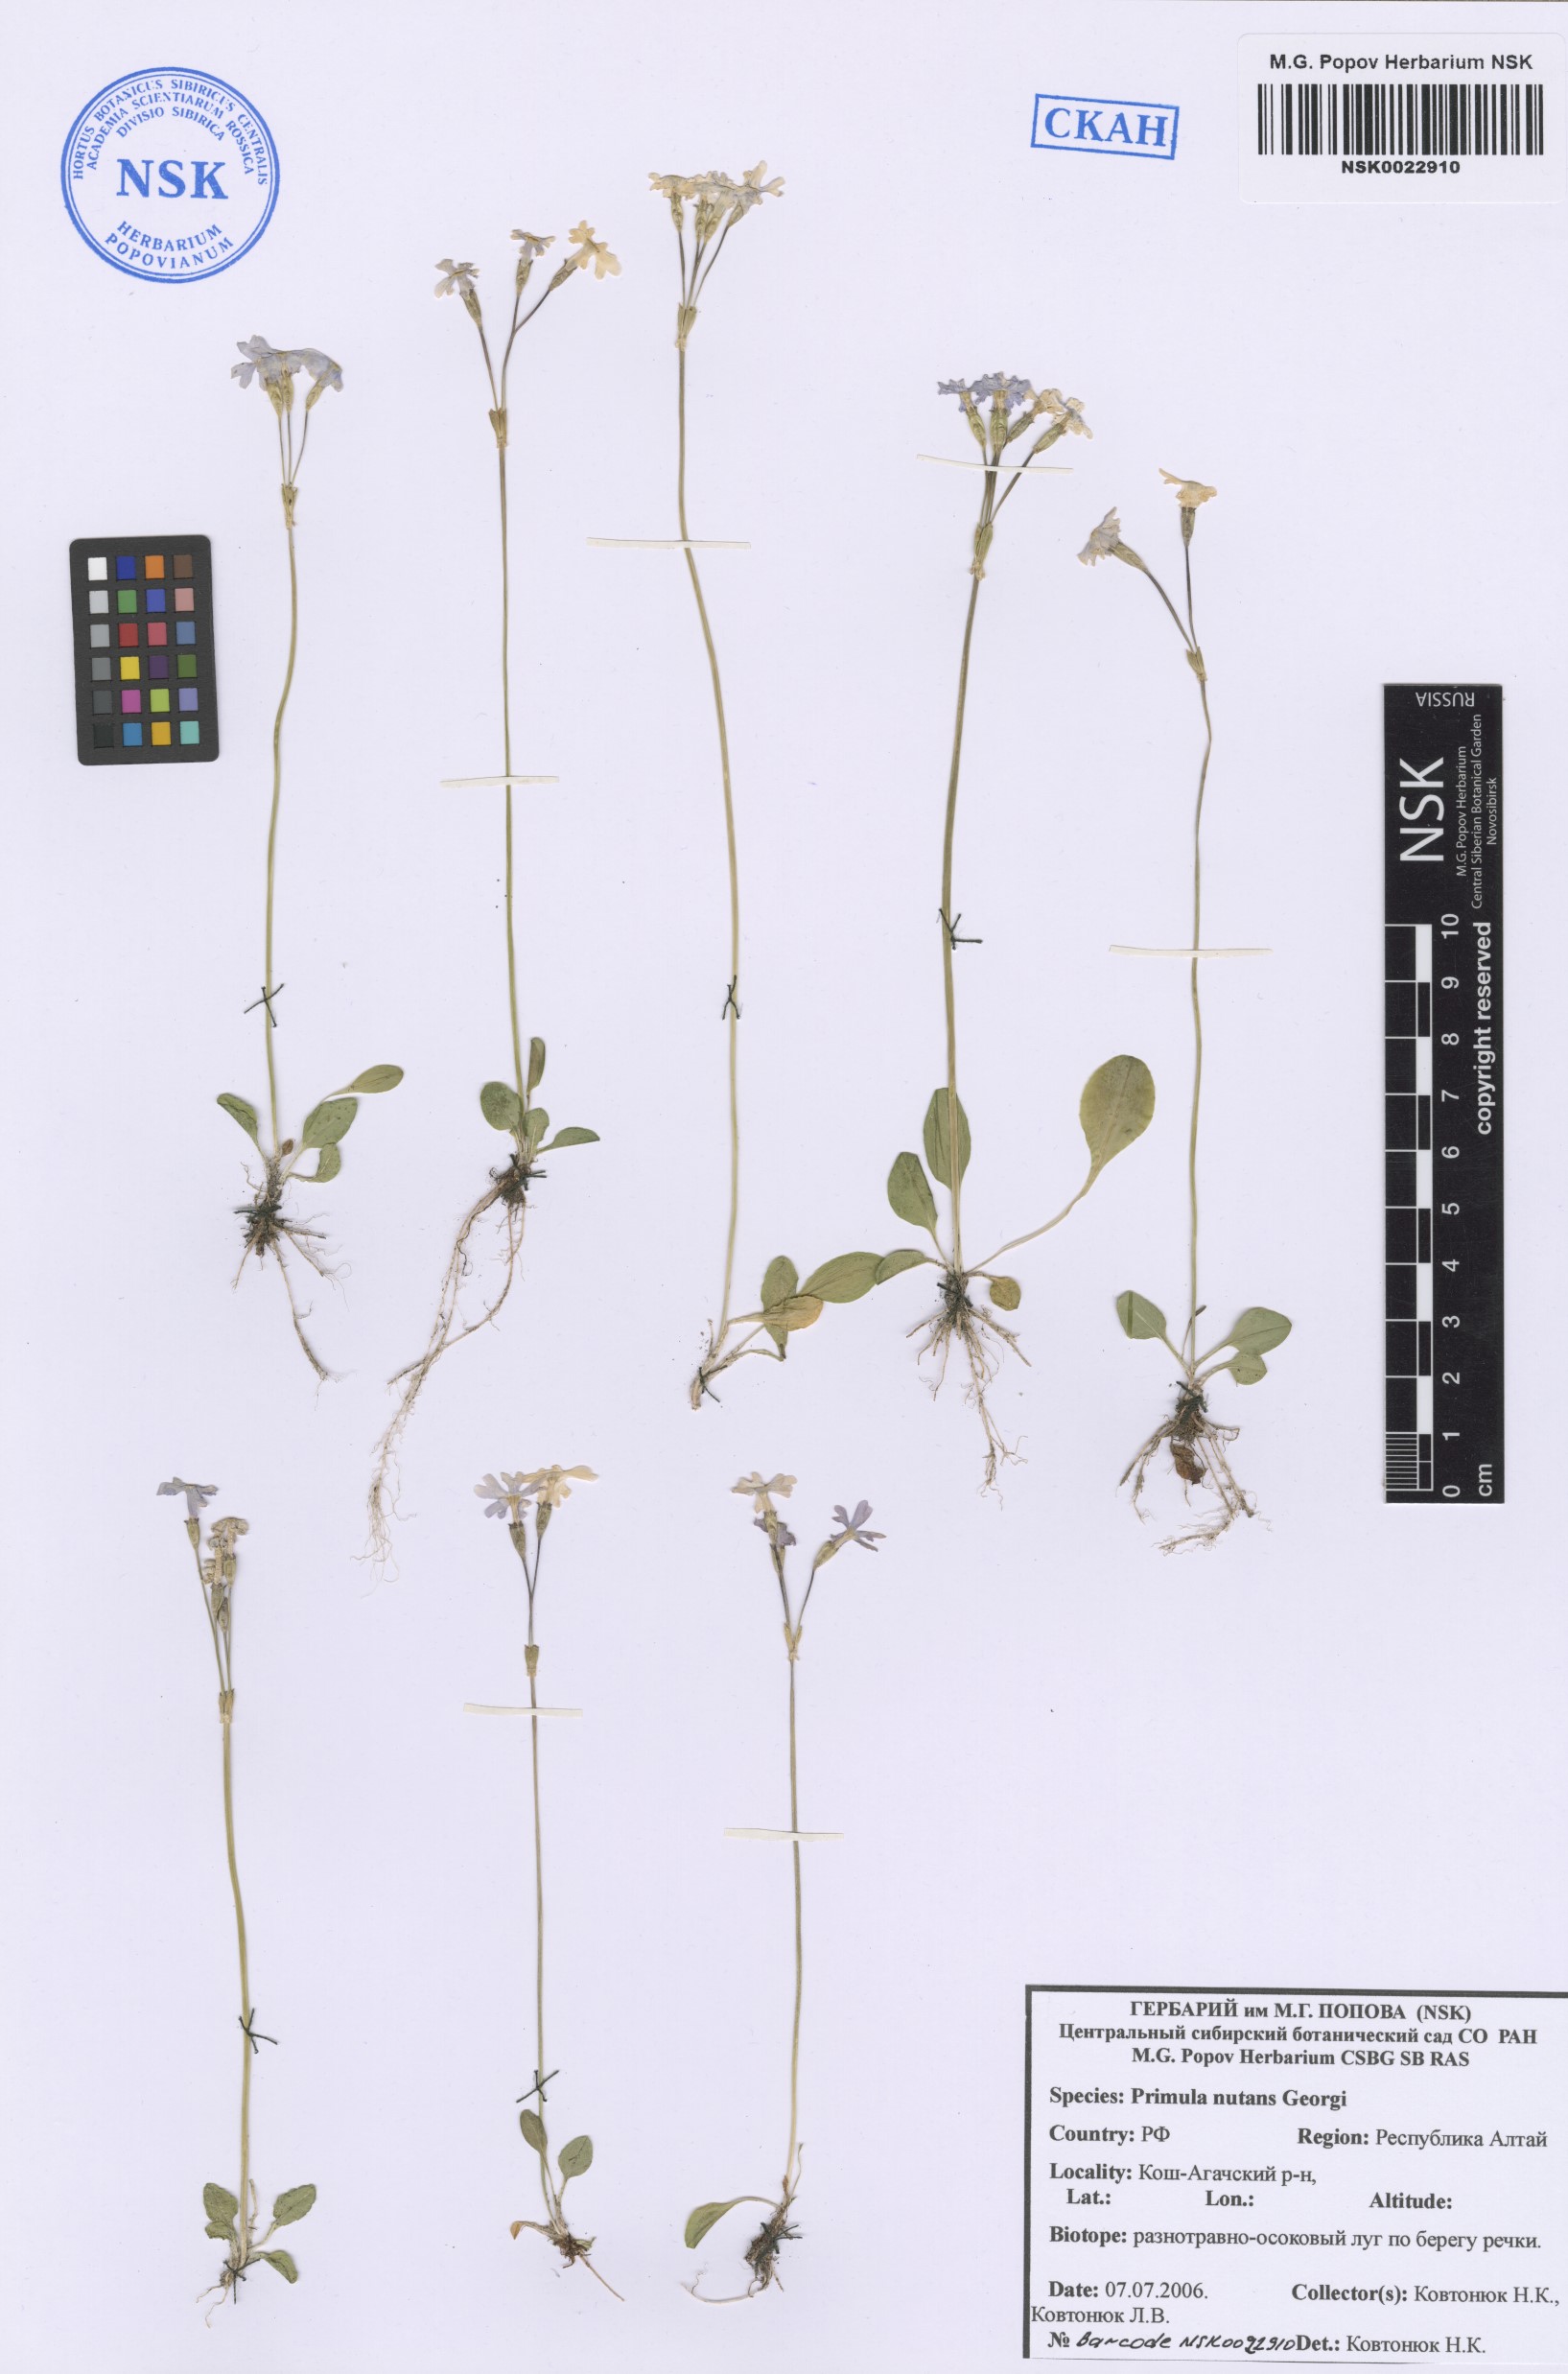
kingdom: Plantae
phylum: Tracheophyta
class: Magnoliopsida
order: Ericales
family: Primulaceae
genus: Primula
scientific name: Primula nutans
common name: Siberian primrose
